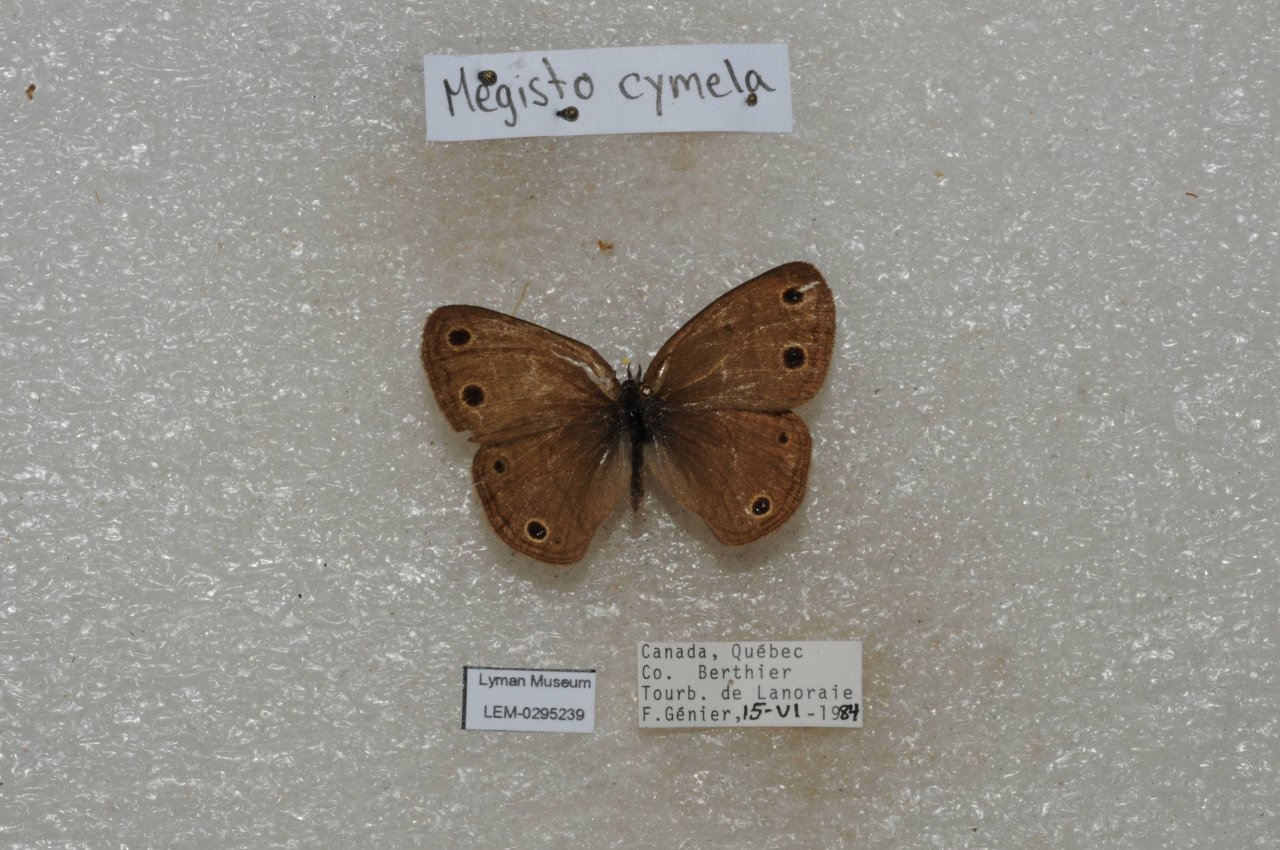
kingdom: Animalia
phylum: Arthropoda
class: Insecta
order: Lepidoptera
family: Nymphalidae
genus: Euptychia
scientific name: Euptychia cymela
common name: Little Wood Satyr
